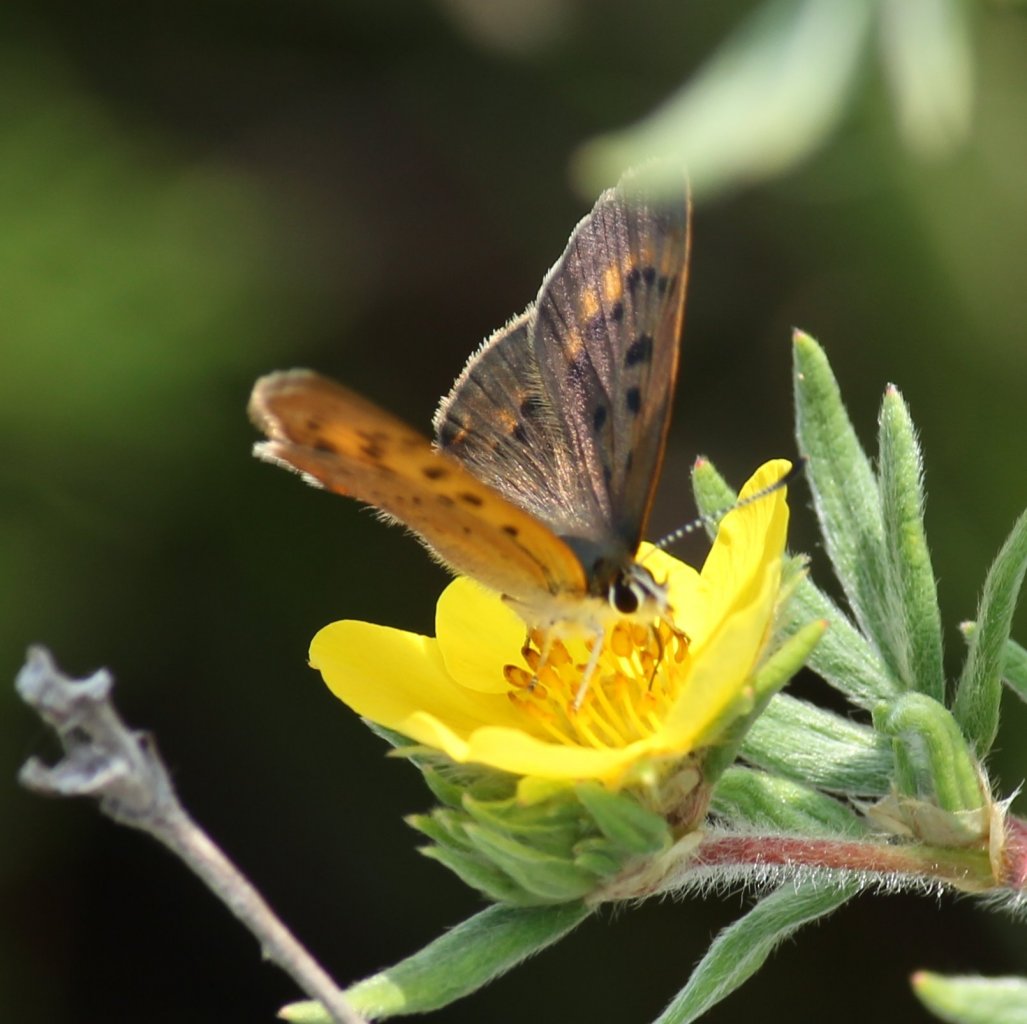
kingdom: Animalia
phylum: Arthropoda
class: Insecta
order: Lepidoptera
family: Lycaenidae
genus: Epidemia
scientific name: Epidemia dorcas
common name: Dorcas Copper
